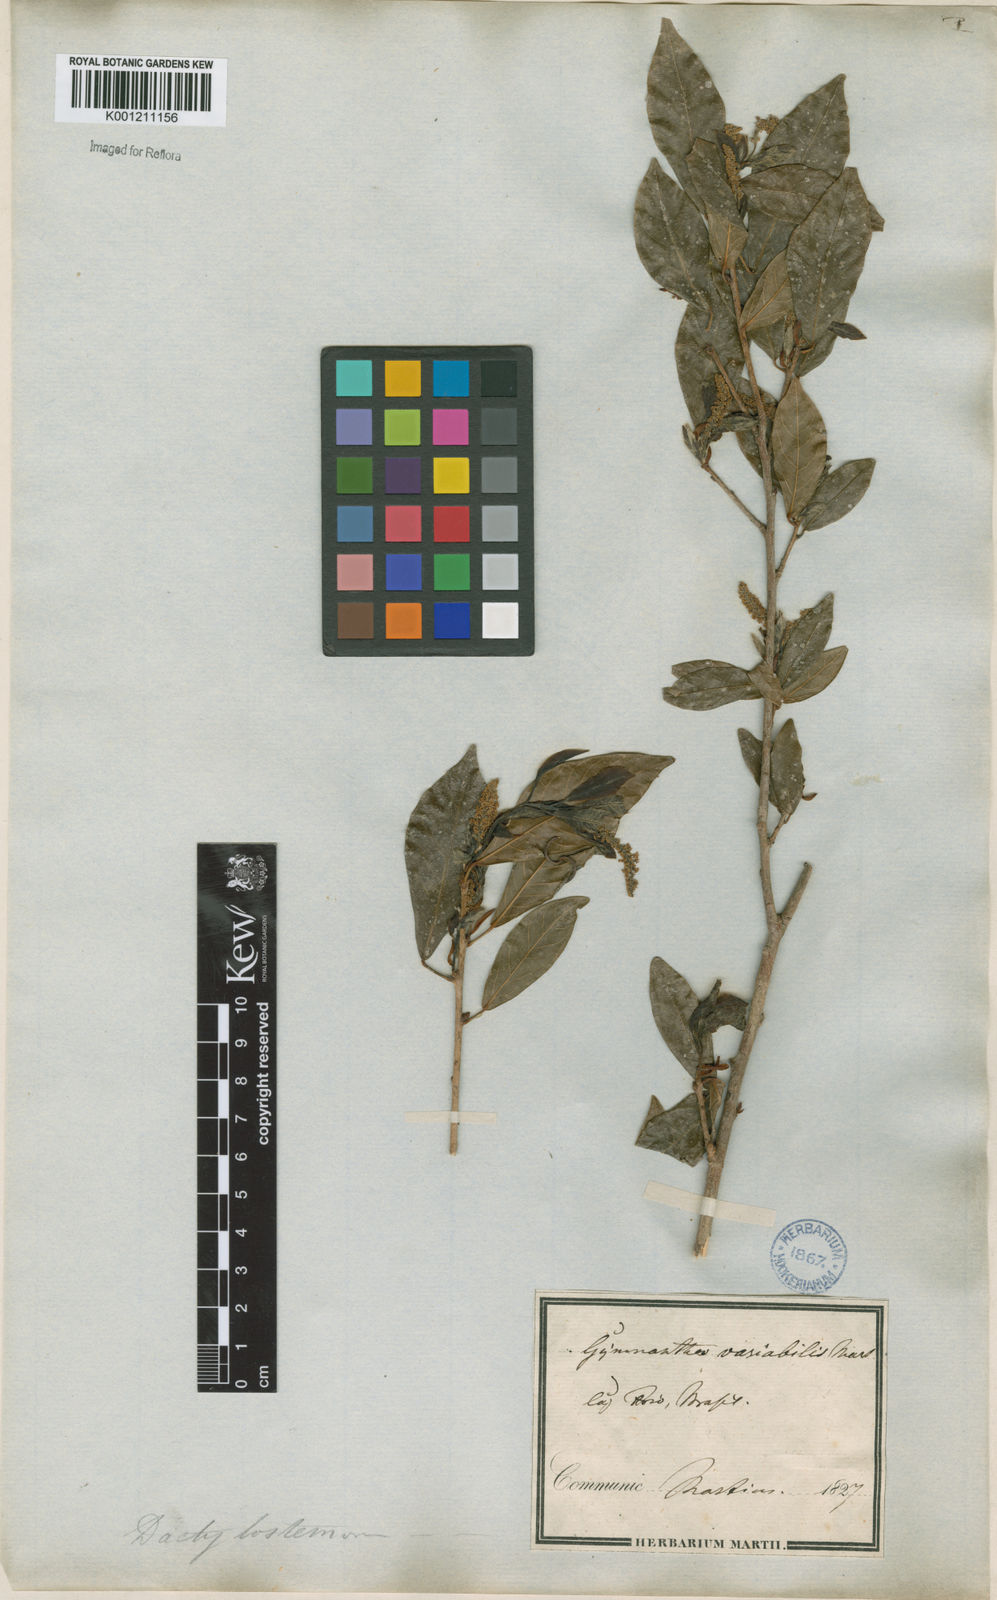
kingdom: Plantae
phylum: Tracheophyta
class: Magnoliopsida
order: Malpighiales
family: Euphorbiaceae
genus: Actinostemon
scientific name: Actinostemon klotzschii
